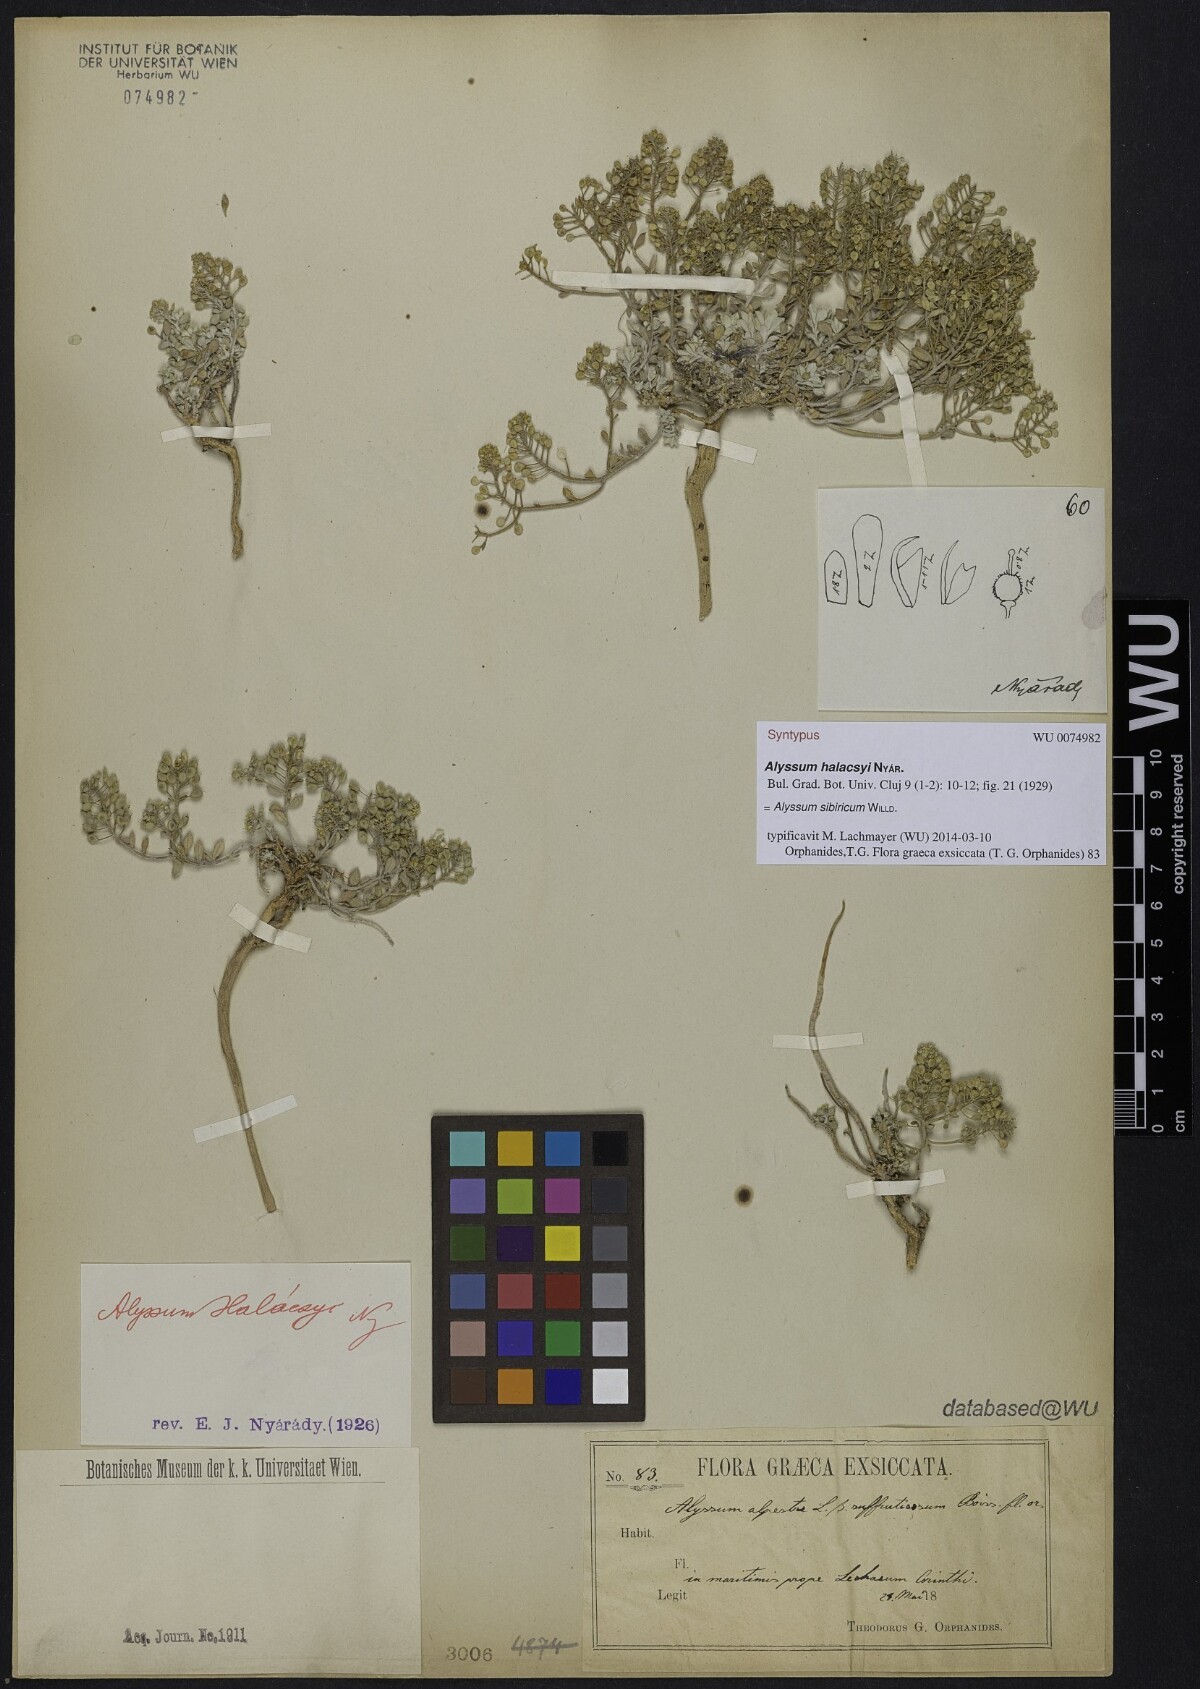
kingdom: Plantae
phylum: Tracheophyta
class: Magnoliopsida
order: Brassicales
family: Brassicaceae
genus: Odontarrhena
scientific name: Odontarrhena sibirica
